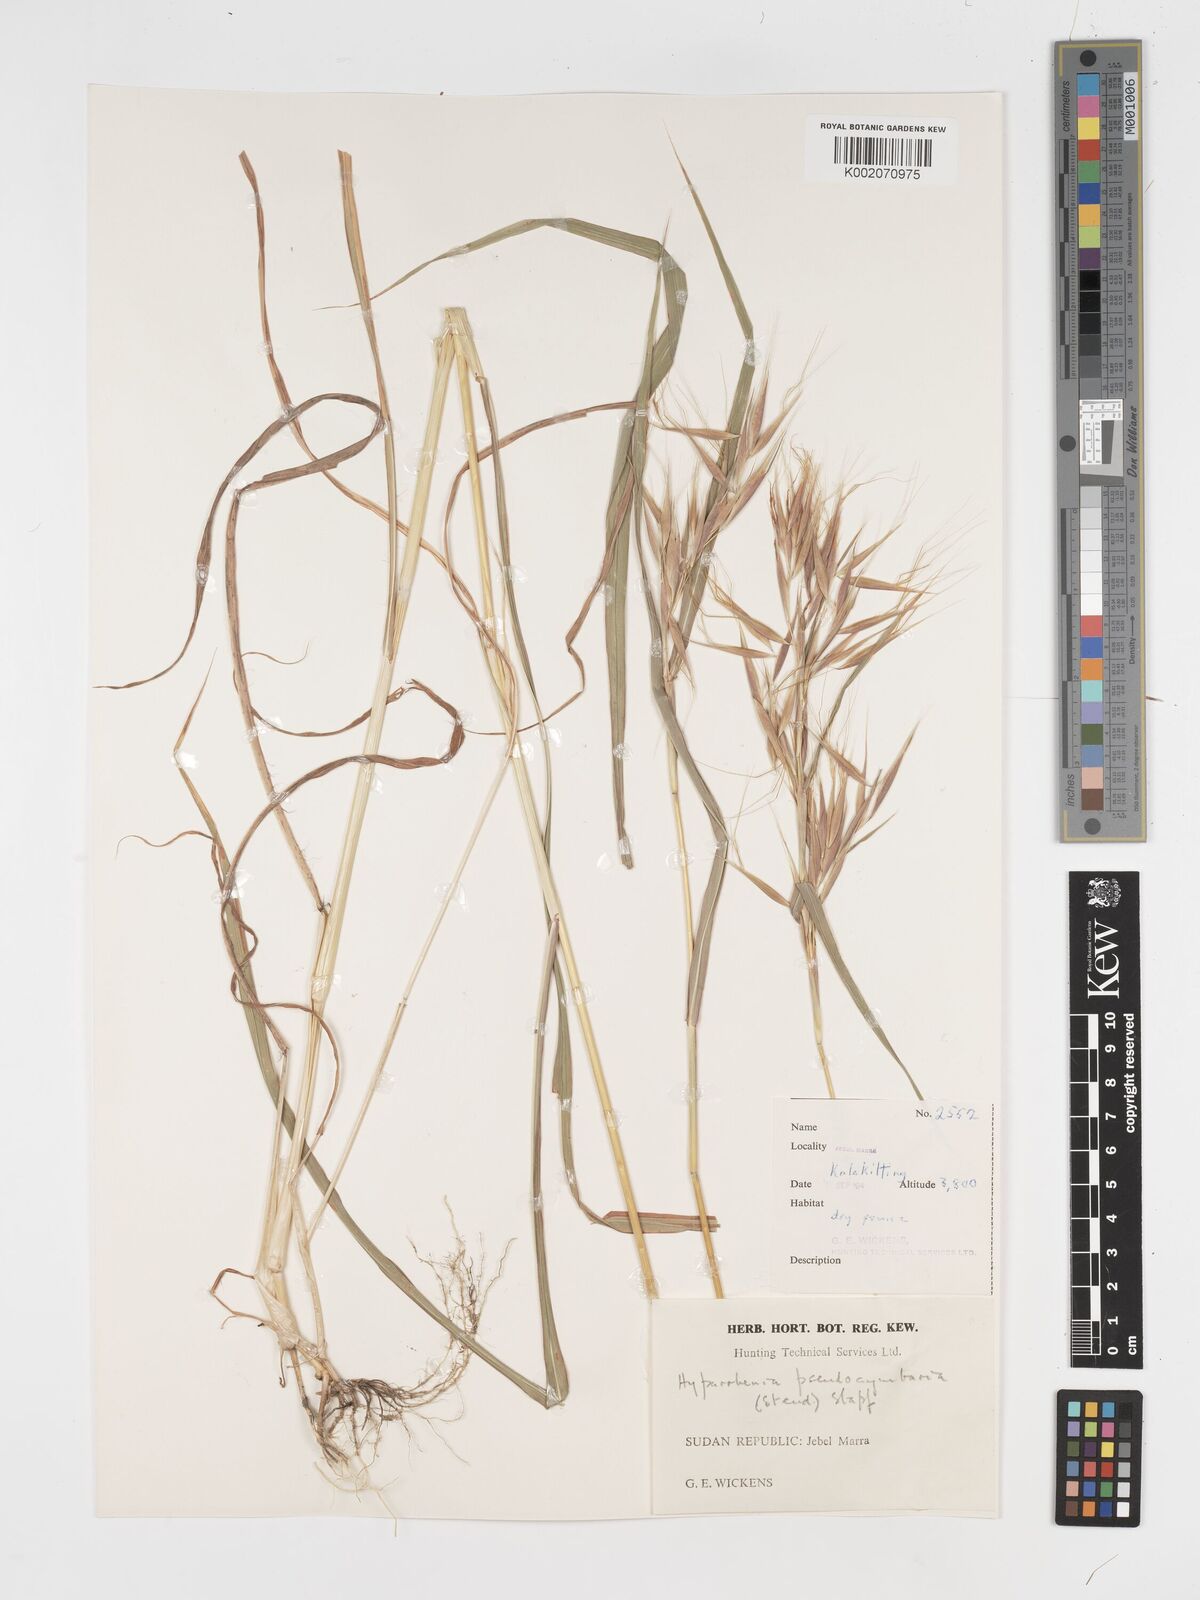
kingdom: Plantae
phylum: Tracheophyta
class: Liliopsida
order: Poales
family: Poaceae
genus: Hyparrhenia
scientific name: Hyparrhenia anthistirioides
